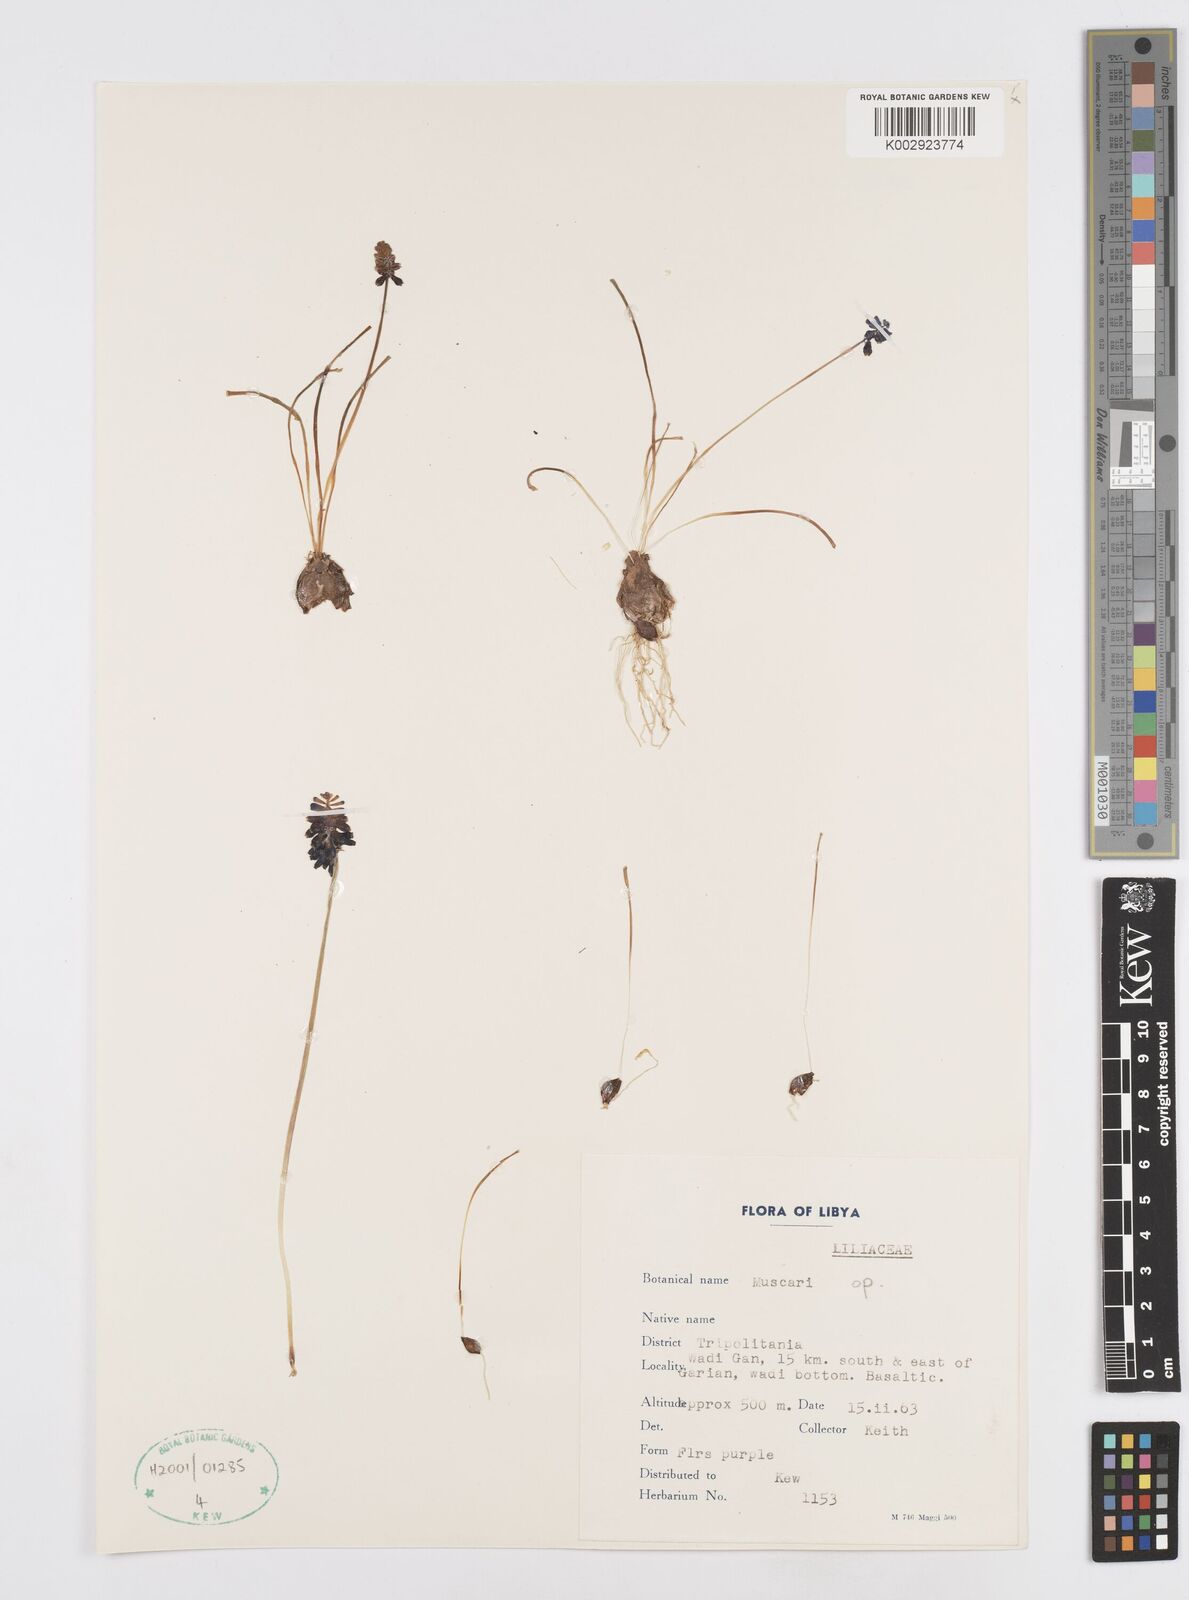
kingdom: Plantae
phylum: Tracheophyta
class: Liliopsida
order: Asparagales
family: Asparagaceae
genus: Muscari
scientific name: Muscari
